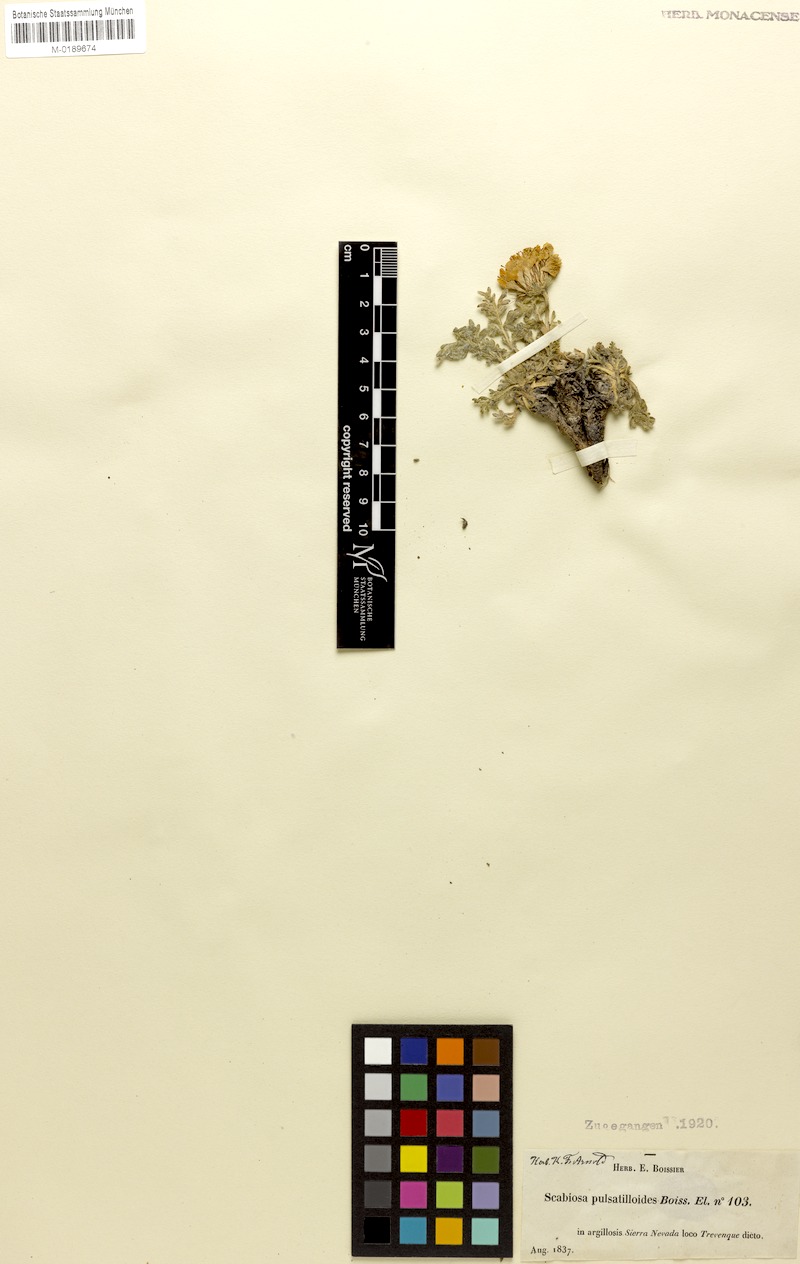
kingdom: Plantae
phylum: Tracheophyta
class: Magnoliopsida
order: Dipsacales
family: Caprifoliaceae
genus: Lomelosia
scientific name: Lomelosia pulsatilloides
